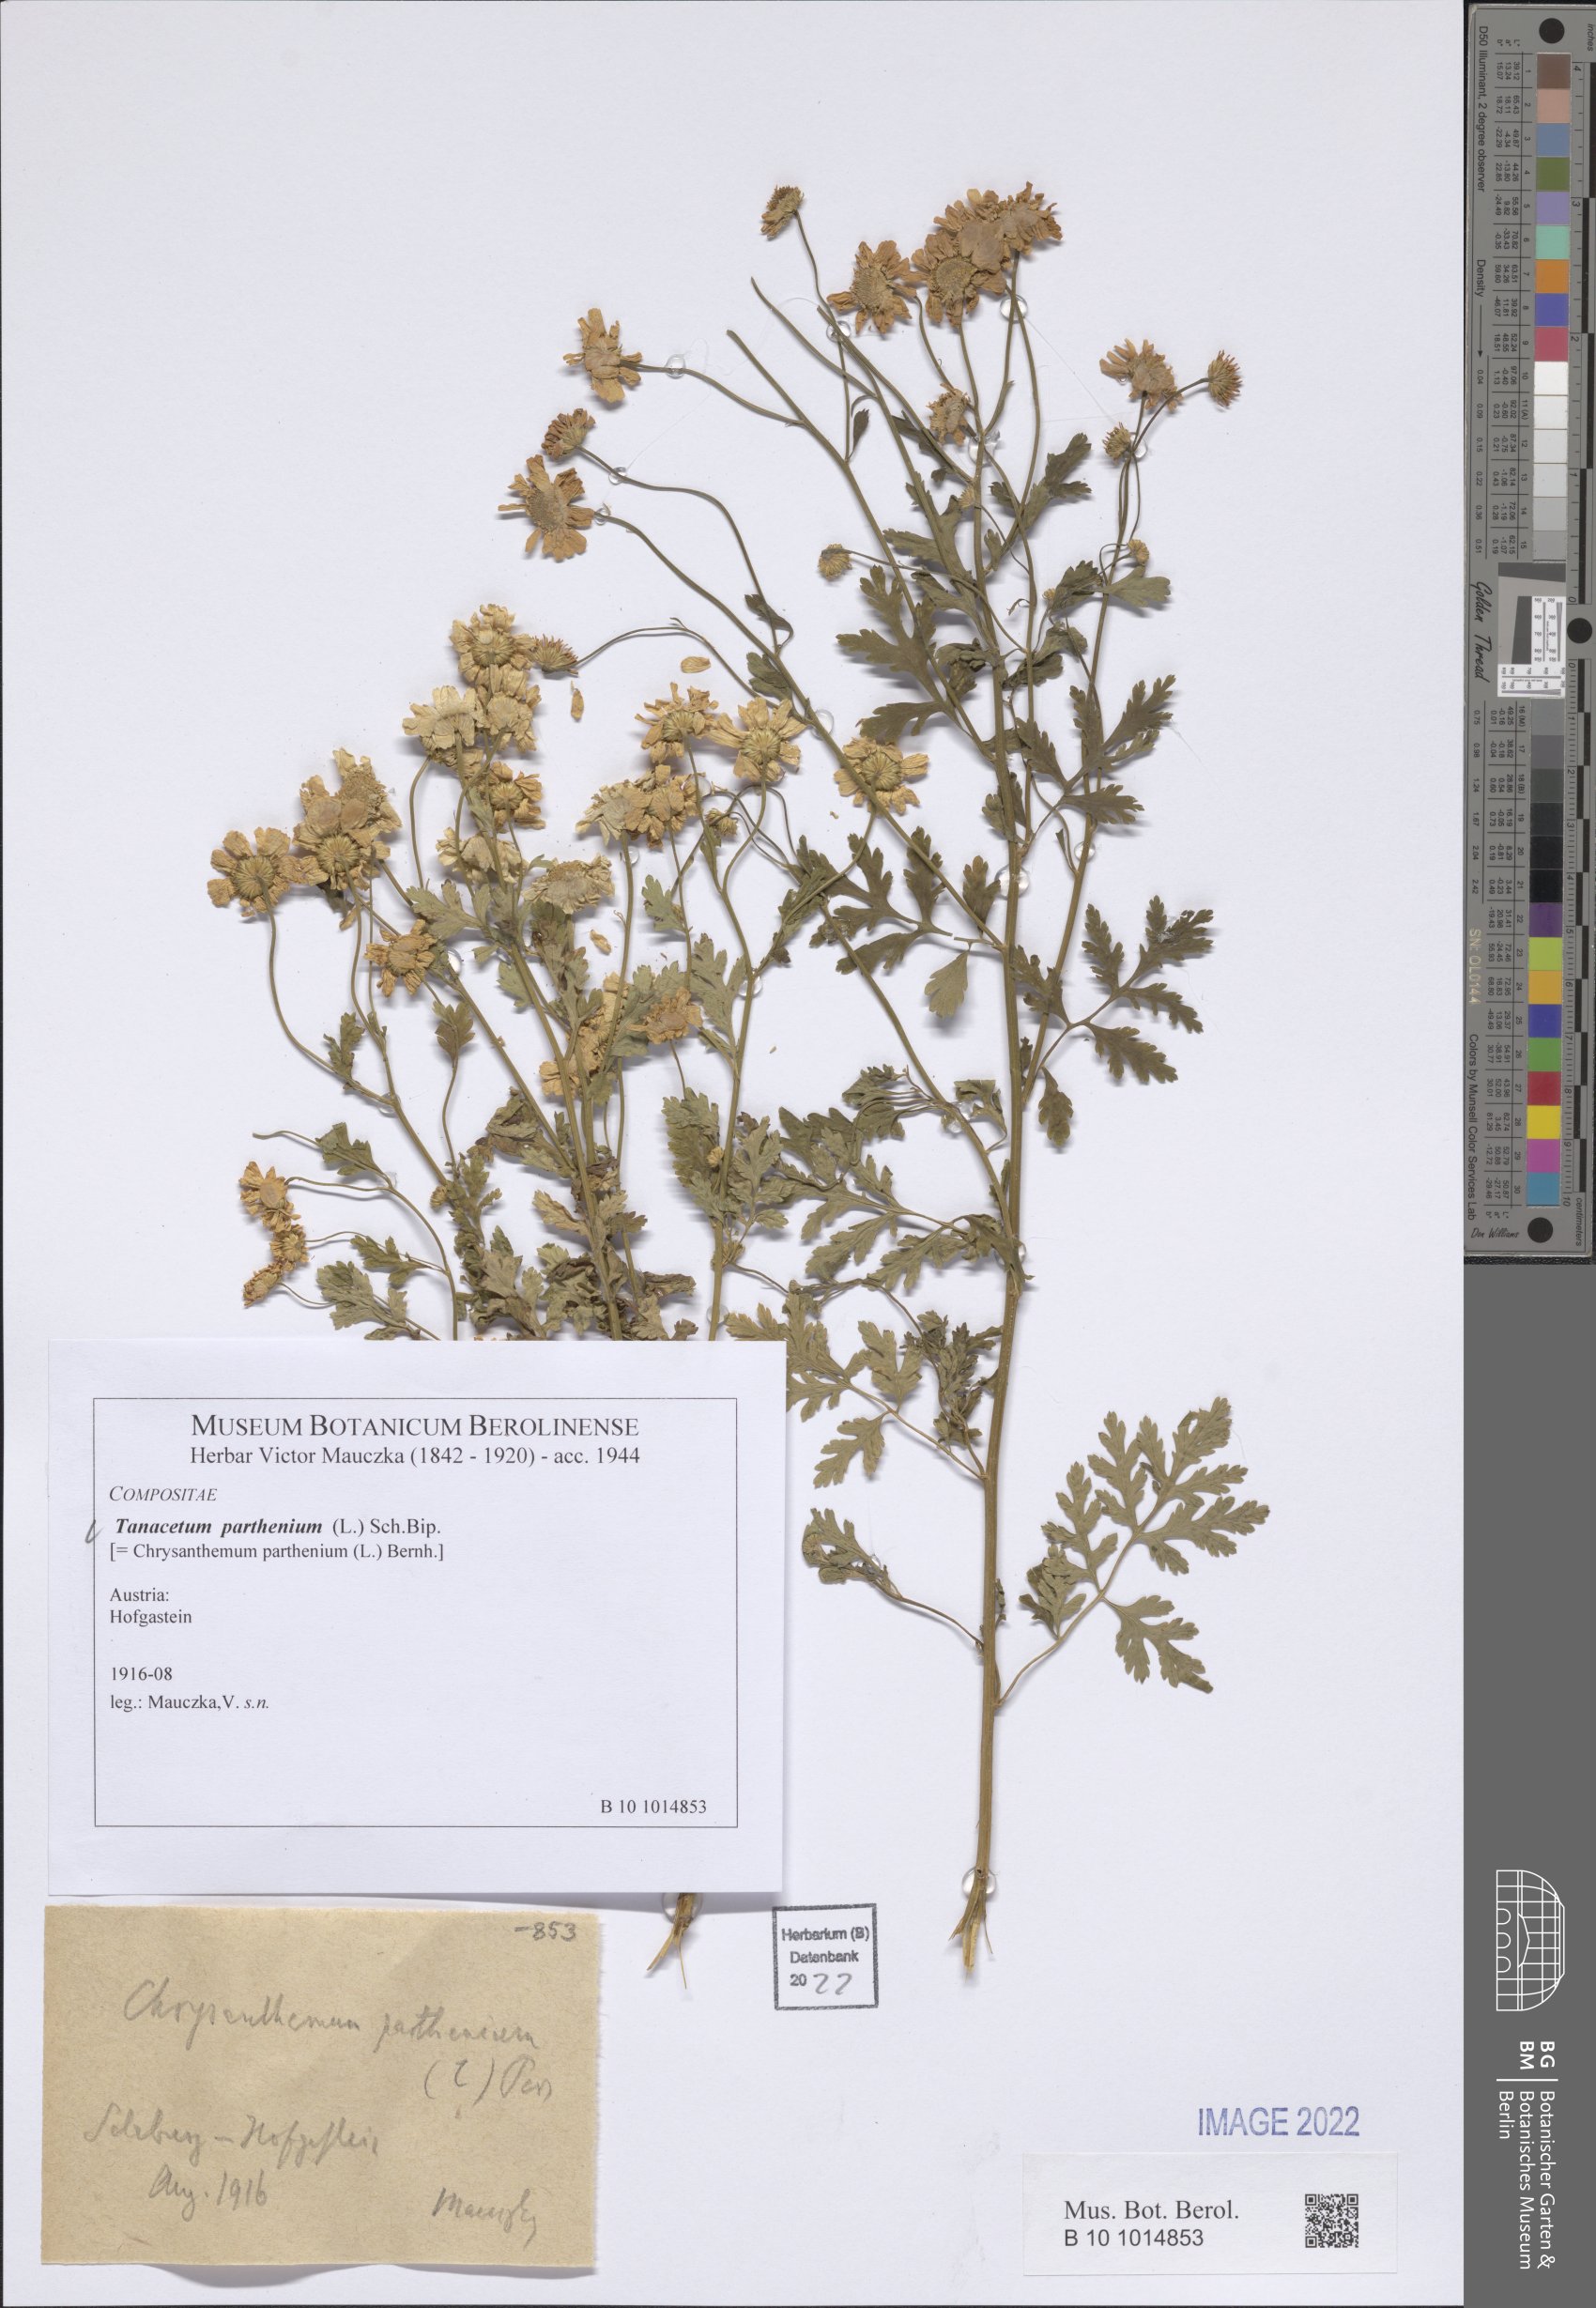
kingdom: Plantae
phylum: Tracheophyta
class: Magnoliopsida
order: Asterales
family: Asteraceae
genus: Tanacetum
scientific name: Tanacetum parthenium
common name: Feverfew
